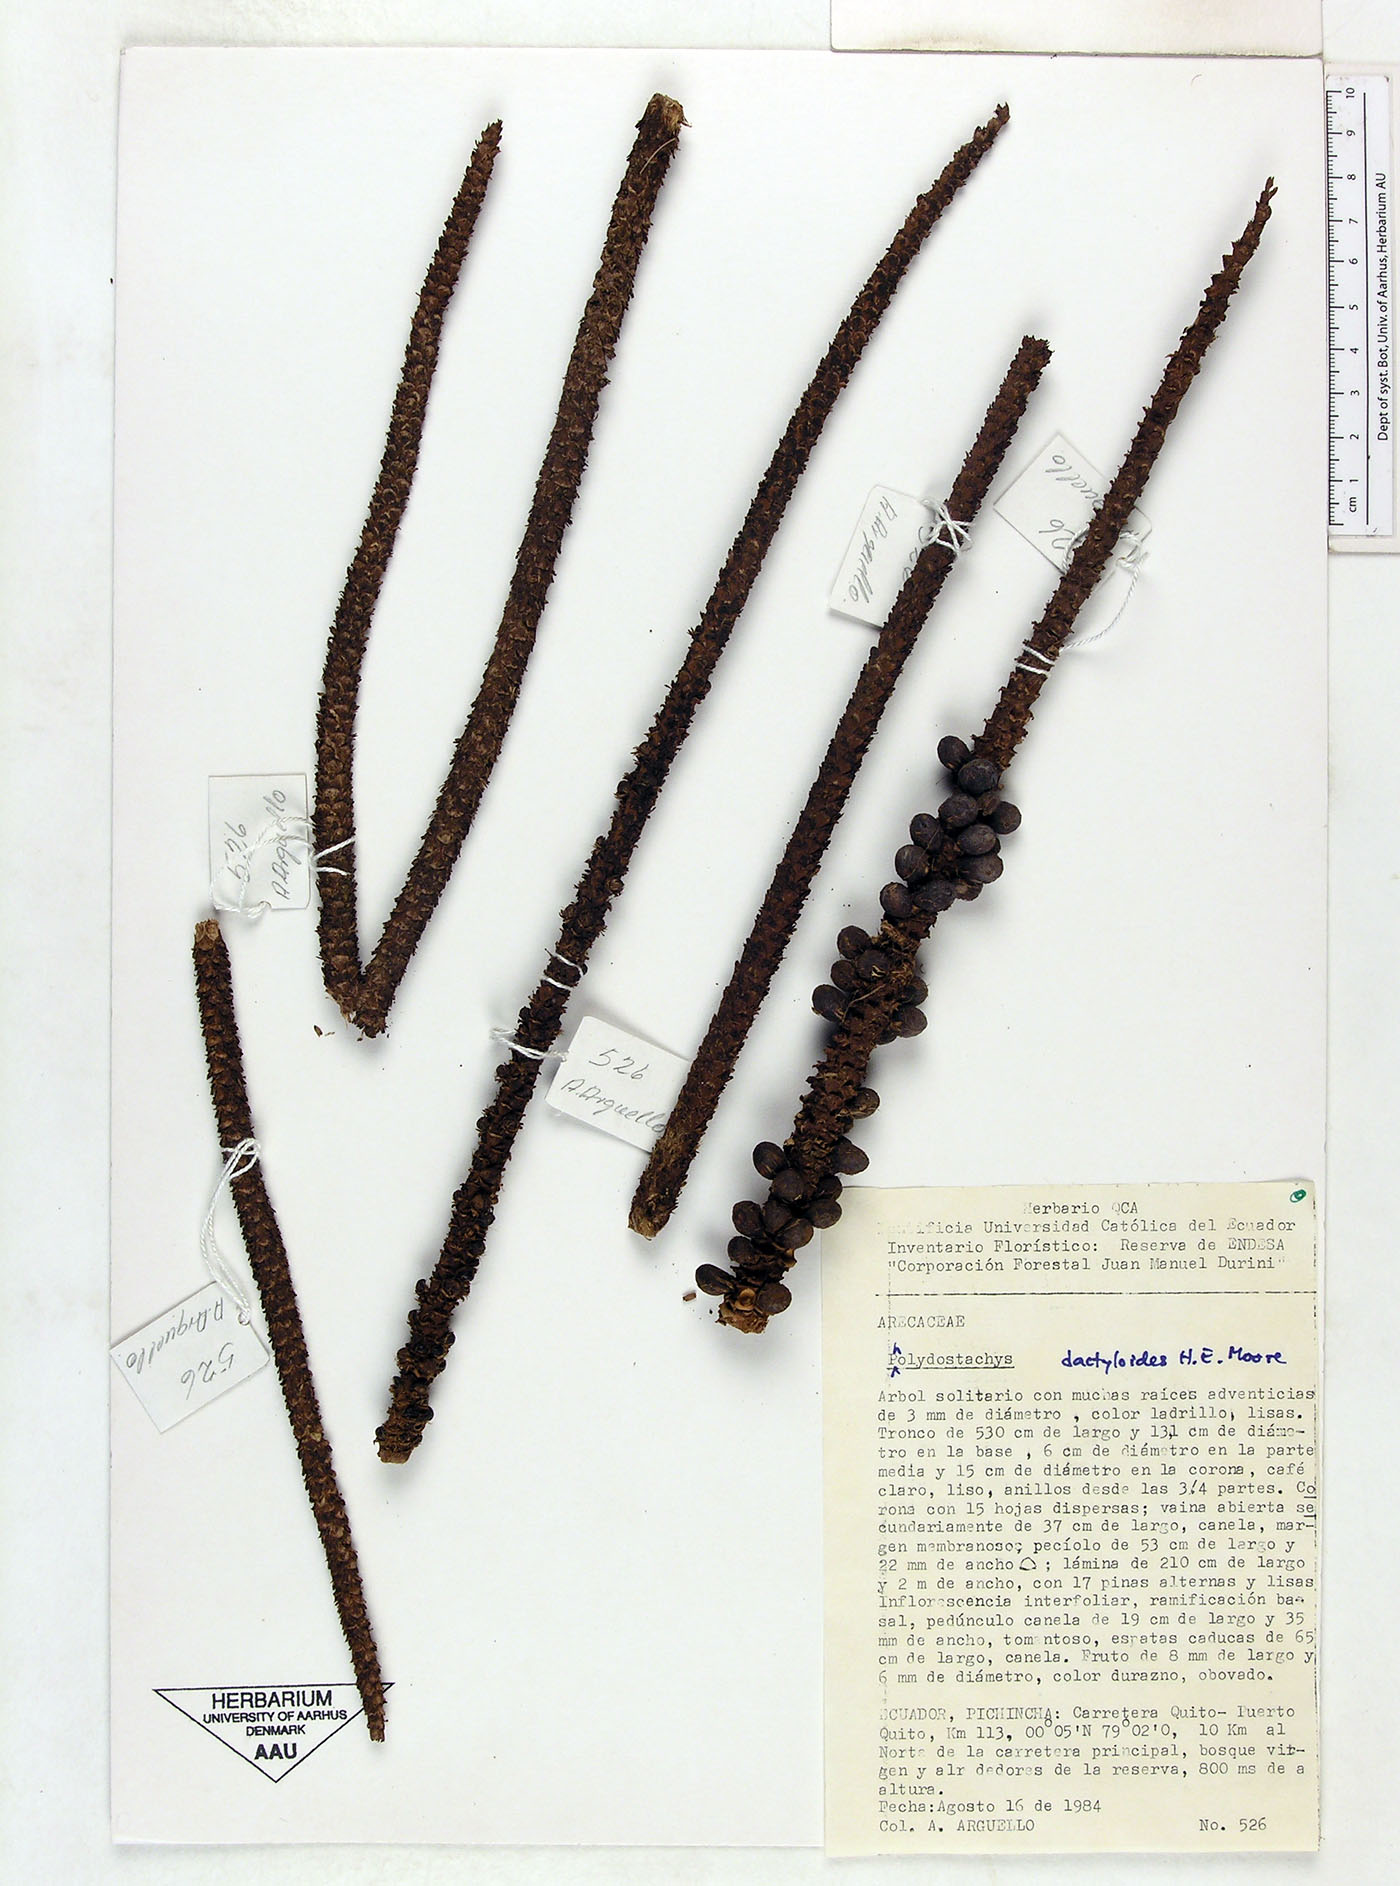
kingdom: Plantae
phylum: Tracheophyta
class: Liliopsida
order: Arecales
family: Arecaceae
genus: Pholidostachys
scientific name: Pholidostachys dactyloides
